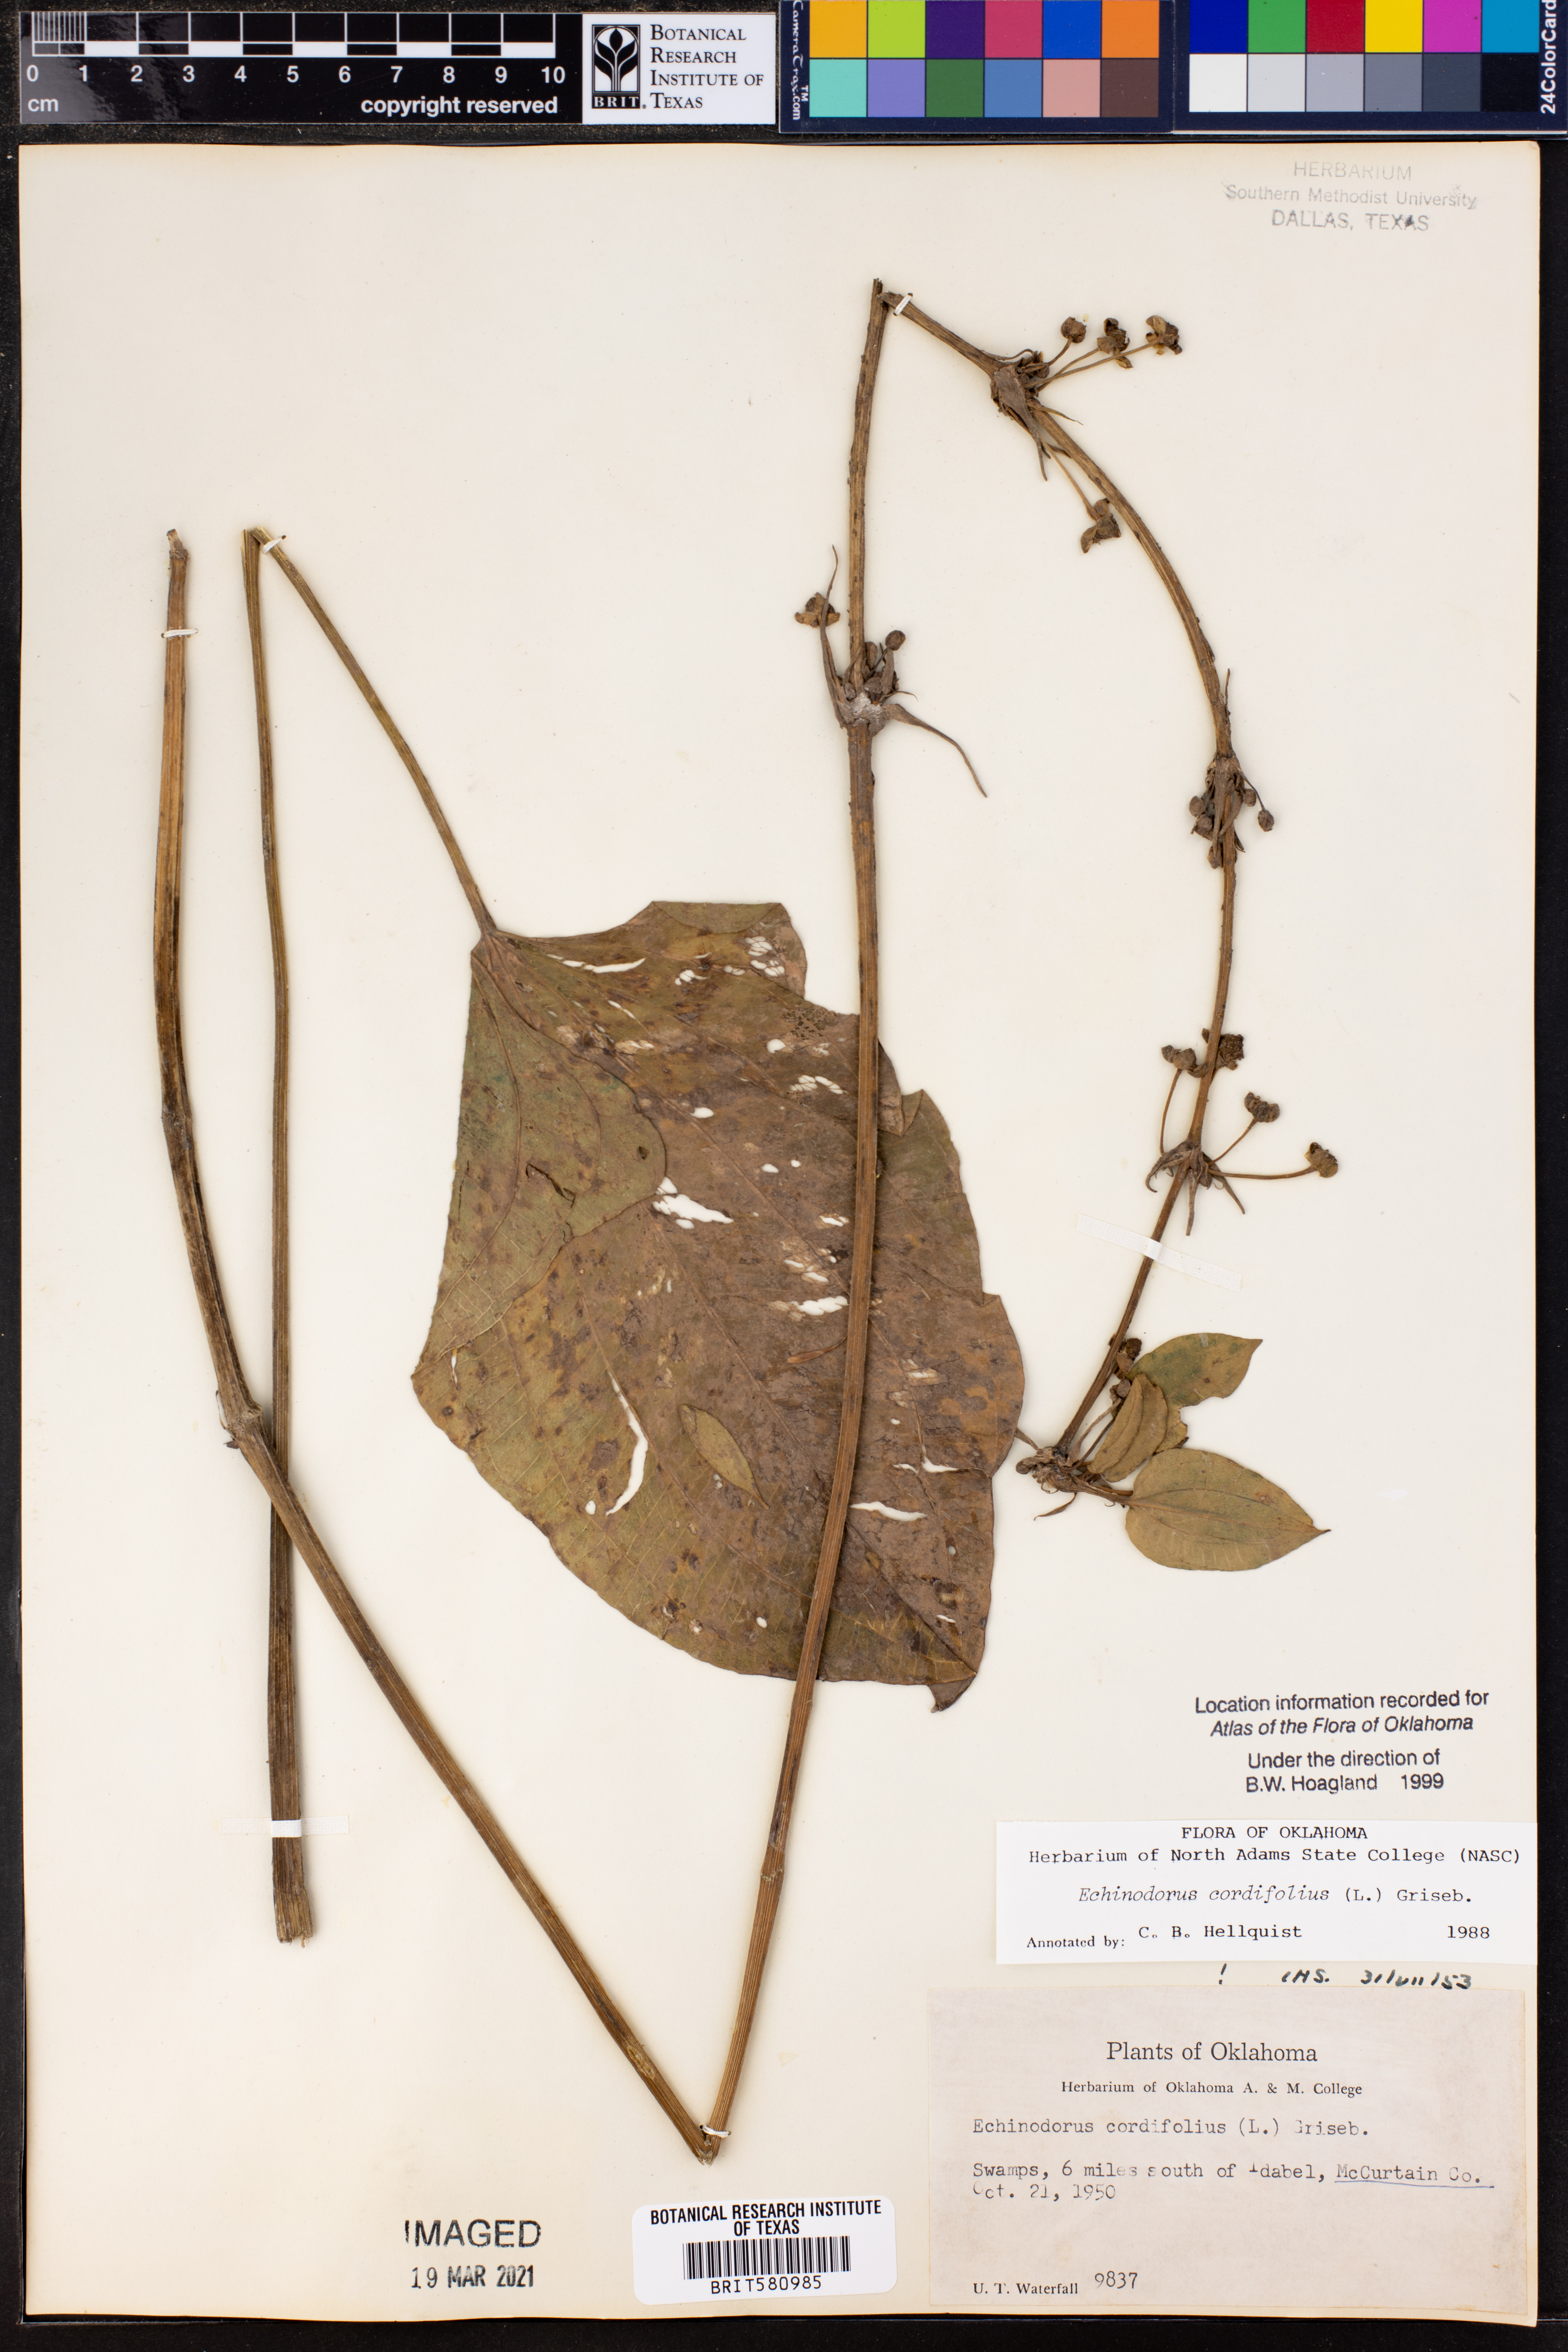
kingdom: Plantae
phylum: Tracheophyta
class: Liliopsida
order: Alismatales
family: Alismataceae
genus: Aquarius
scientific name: Aquarius cordifolius
